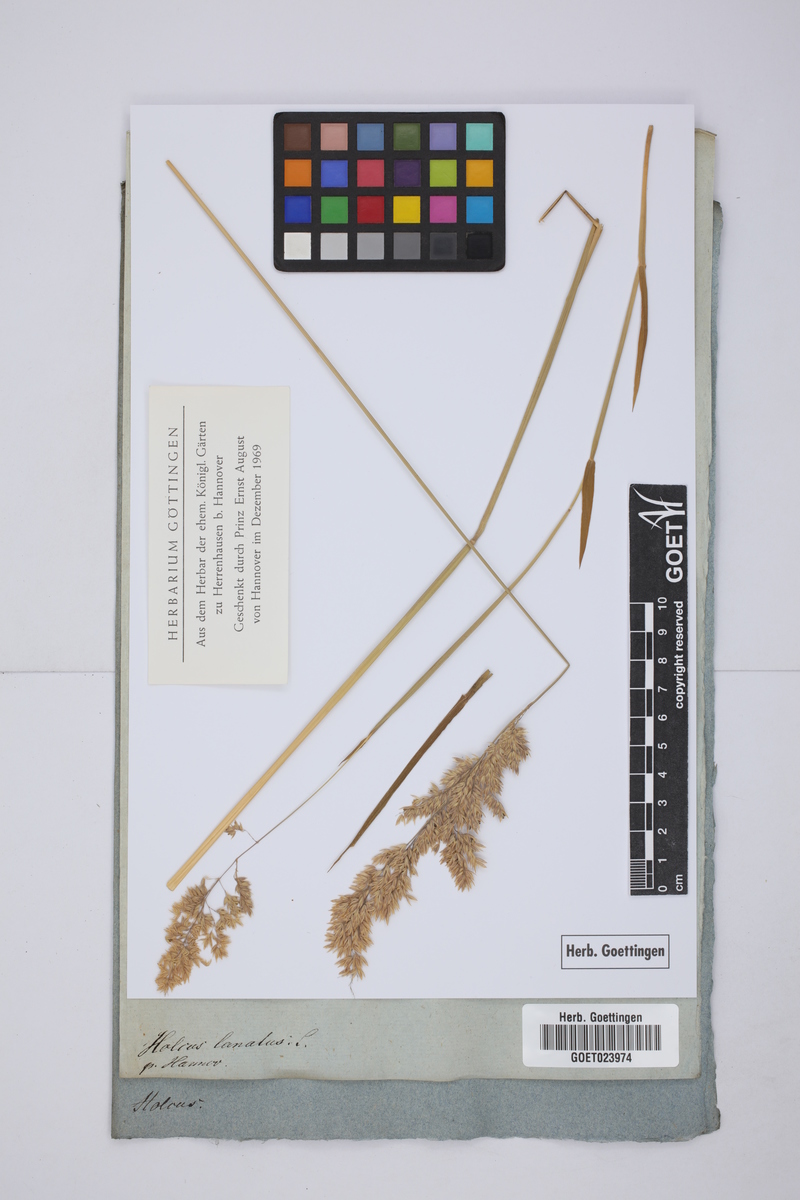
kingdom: Plantae
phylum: Tracheophyta
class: Liliopsida
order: Poales
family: Poaceae
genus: Holcus
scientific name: Holcus lanatus
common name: Yorkshire-fog
